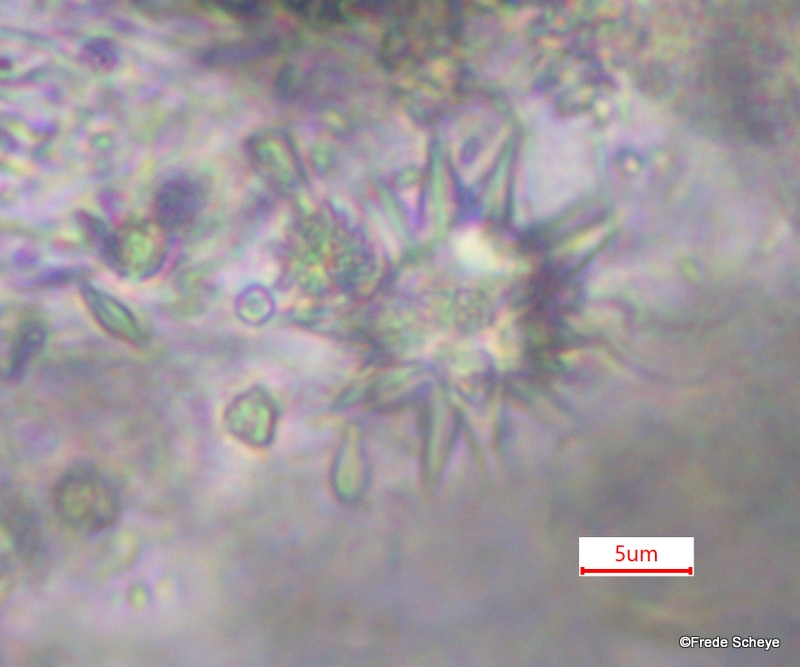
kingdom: Fungi
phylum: Basidiomycota
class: Agaricomycetes
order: Gomphales
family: Gomphaceae
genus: Phaeoclavulina
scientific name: Phaeoclavulina abietina
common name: gulgrøn koralsvamp
